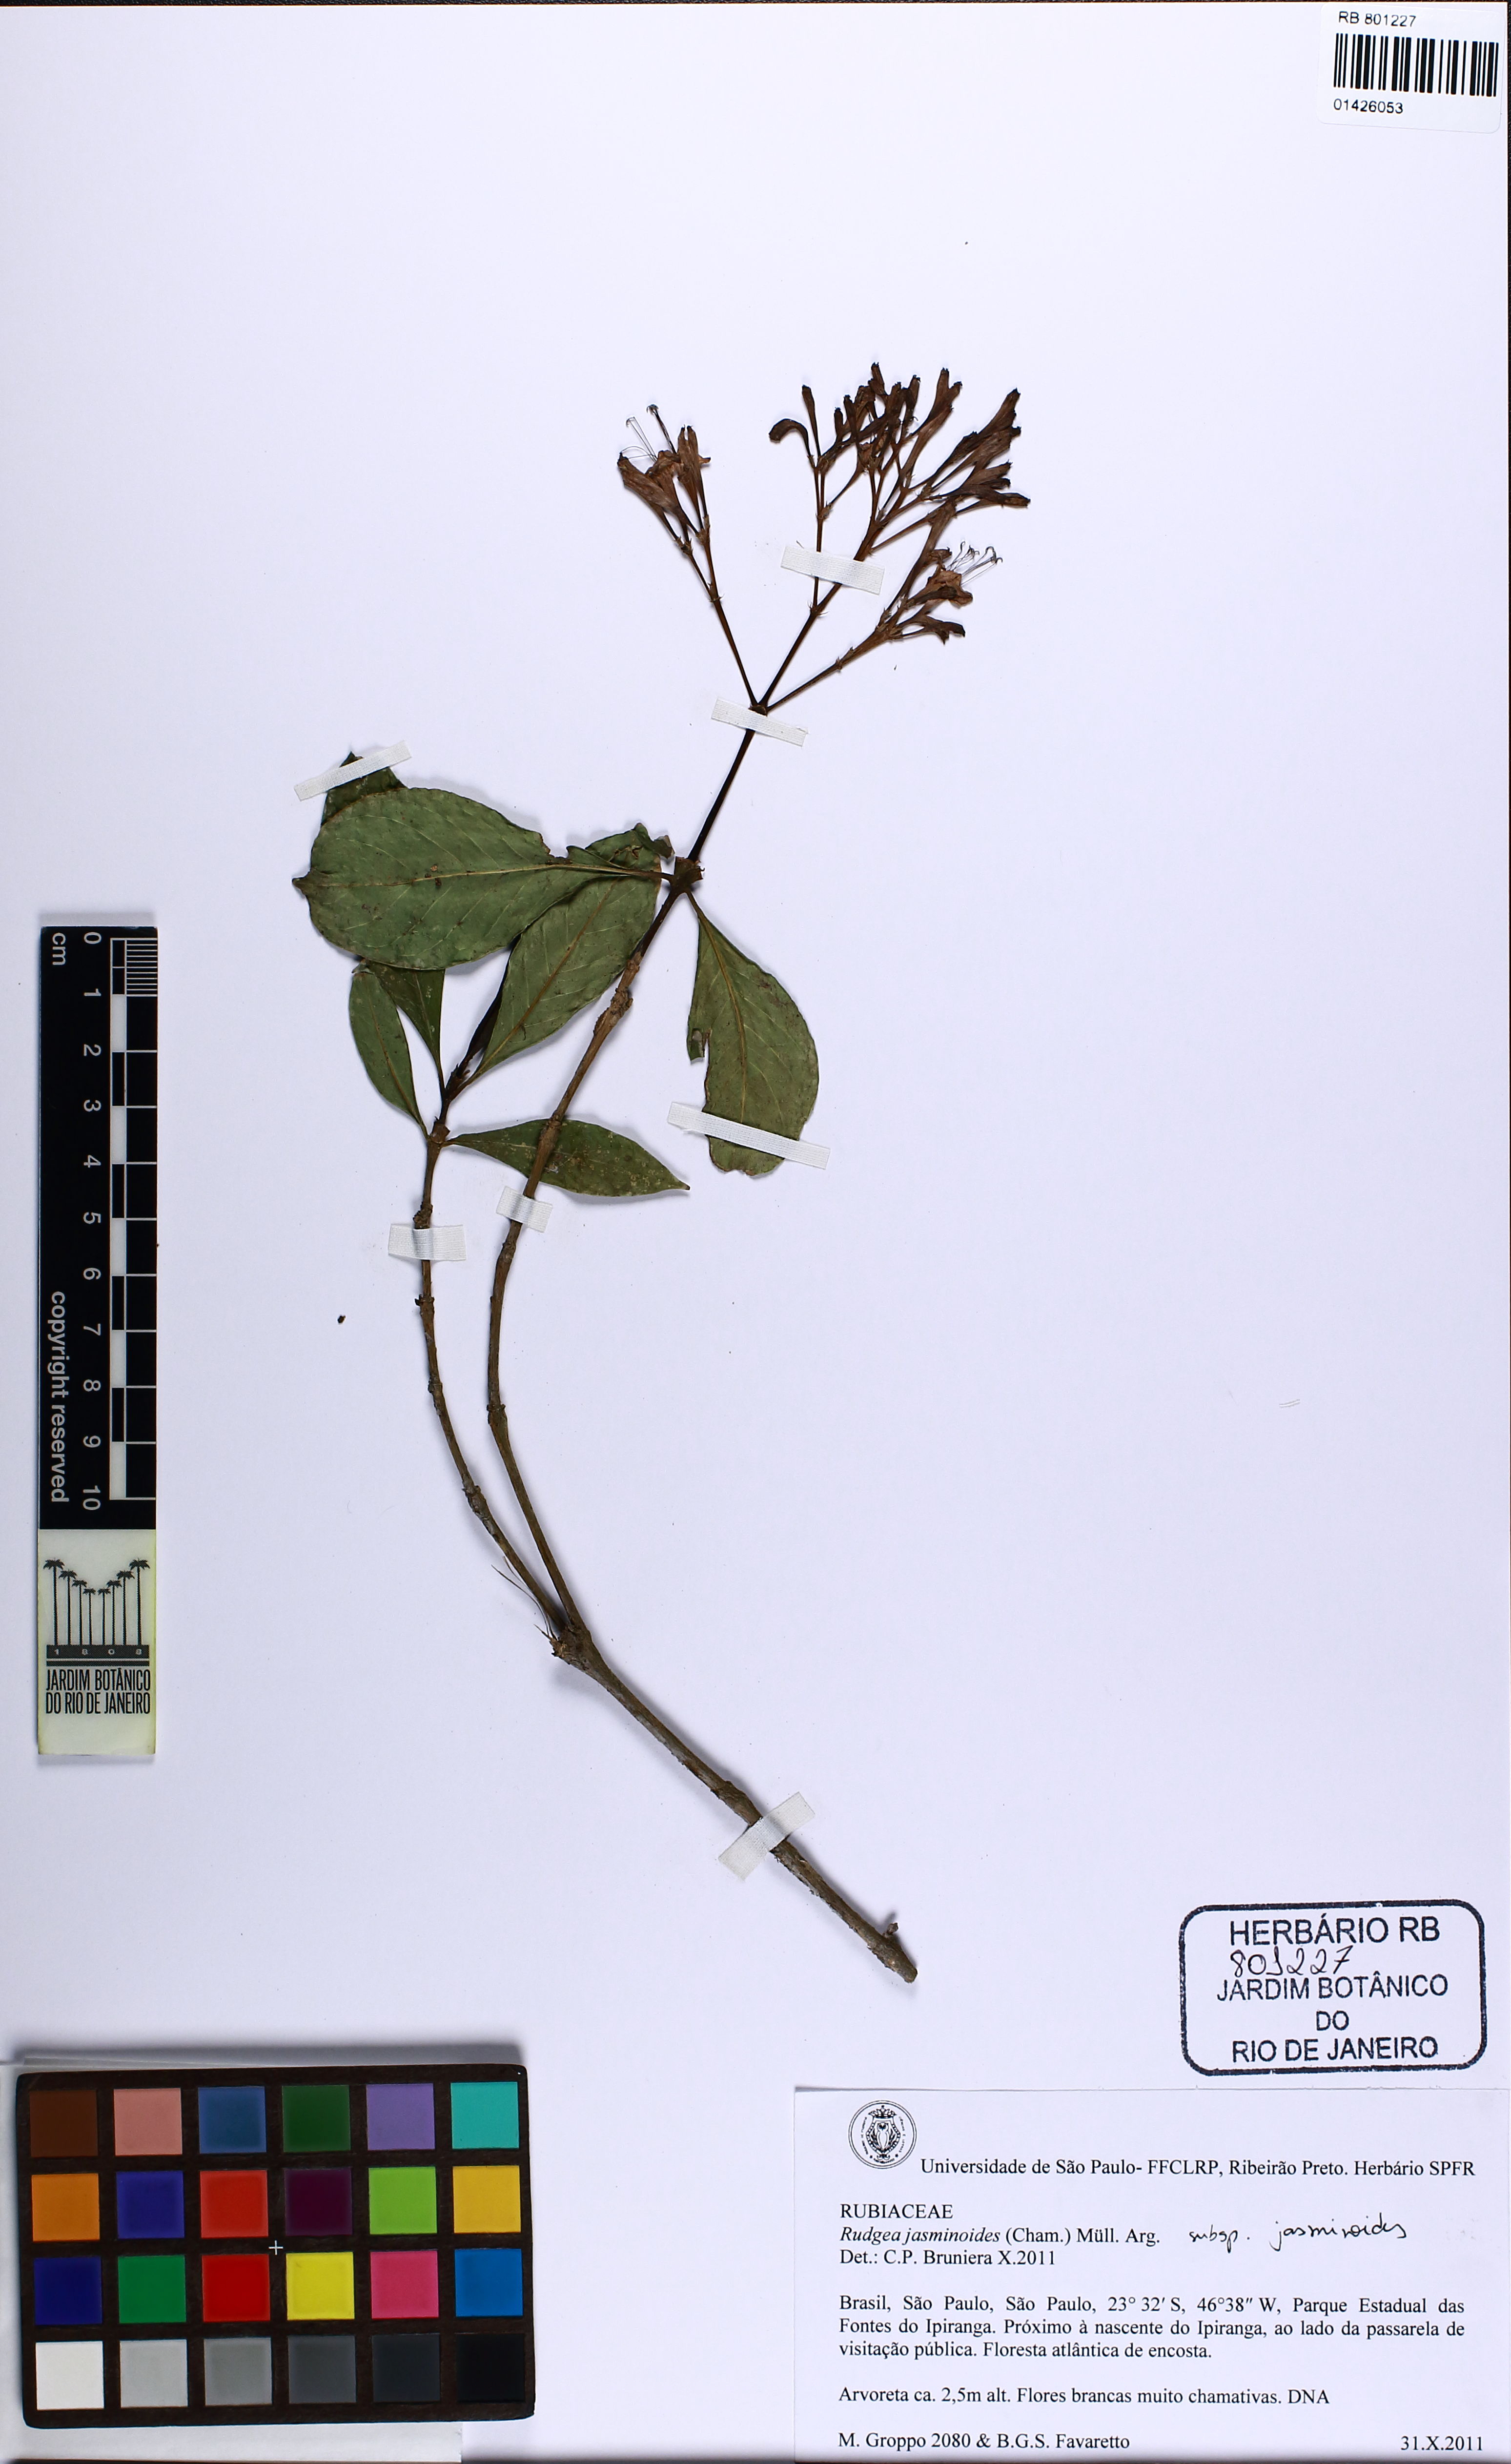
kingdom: Plantae
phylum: Tracheophyta
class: Magnoliopsida
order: Gentianales
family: Rubiaceae
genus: Rudgea
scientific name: Rudgea jasminoides
